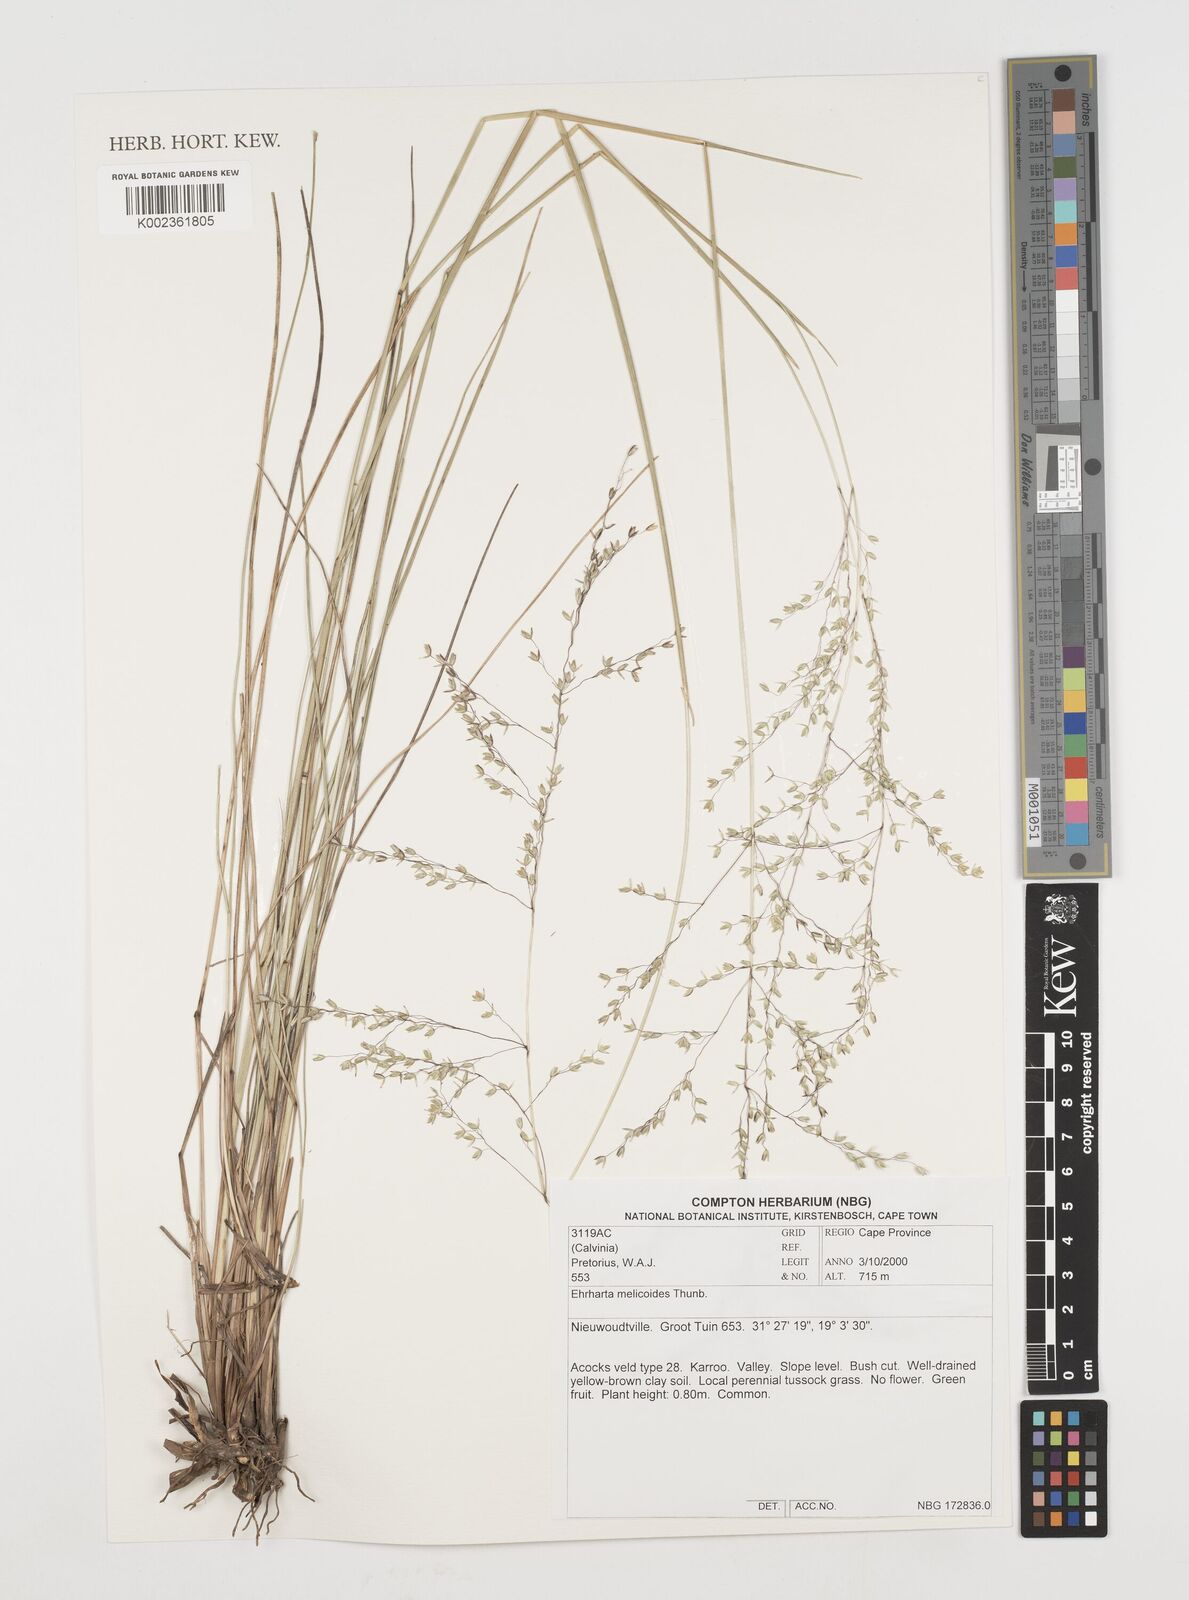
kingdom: Plantae
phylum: Tracheophyta
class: Liliopsida
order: Poales
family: Poaceae
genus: Ehrharta
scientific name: Ehrharta melicoides
